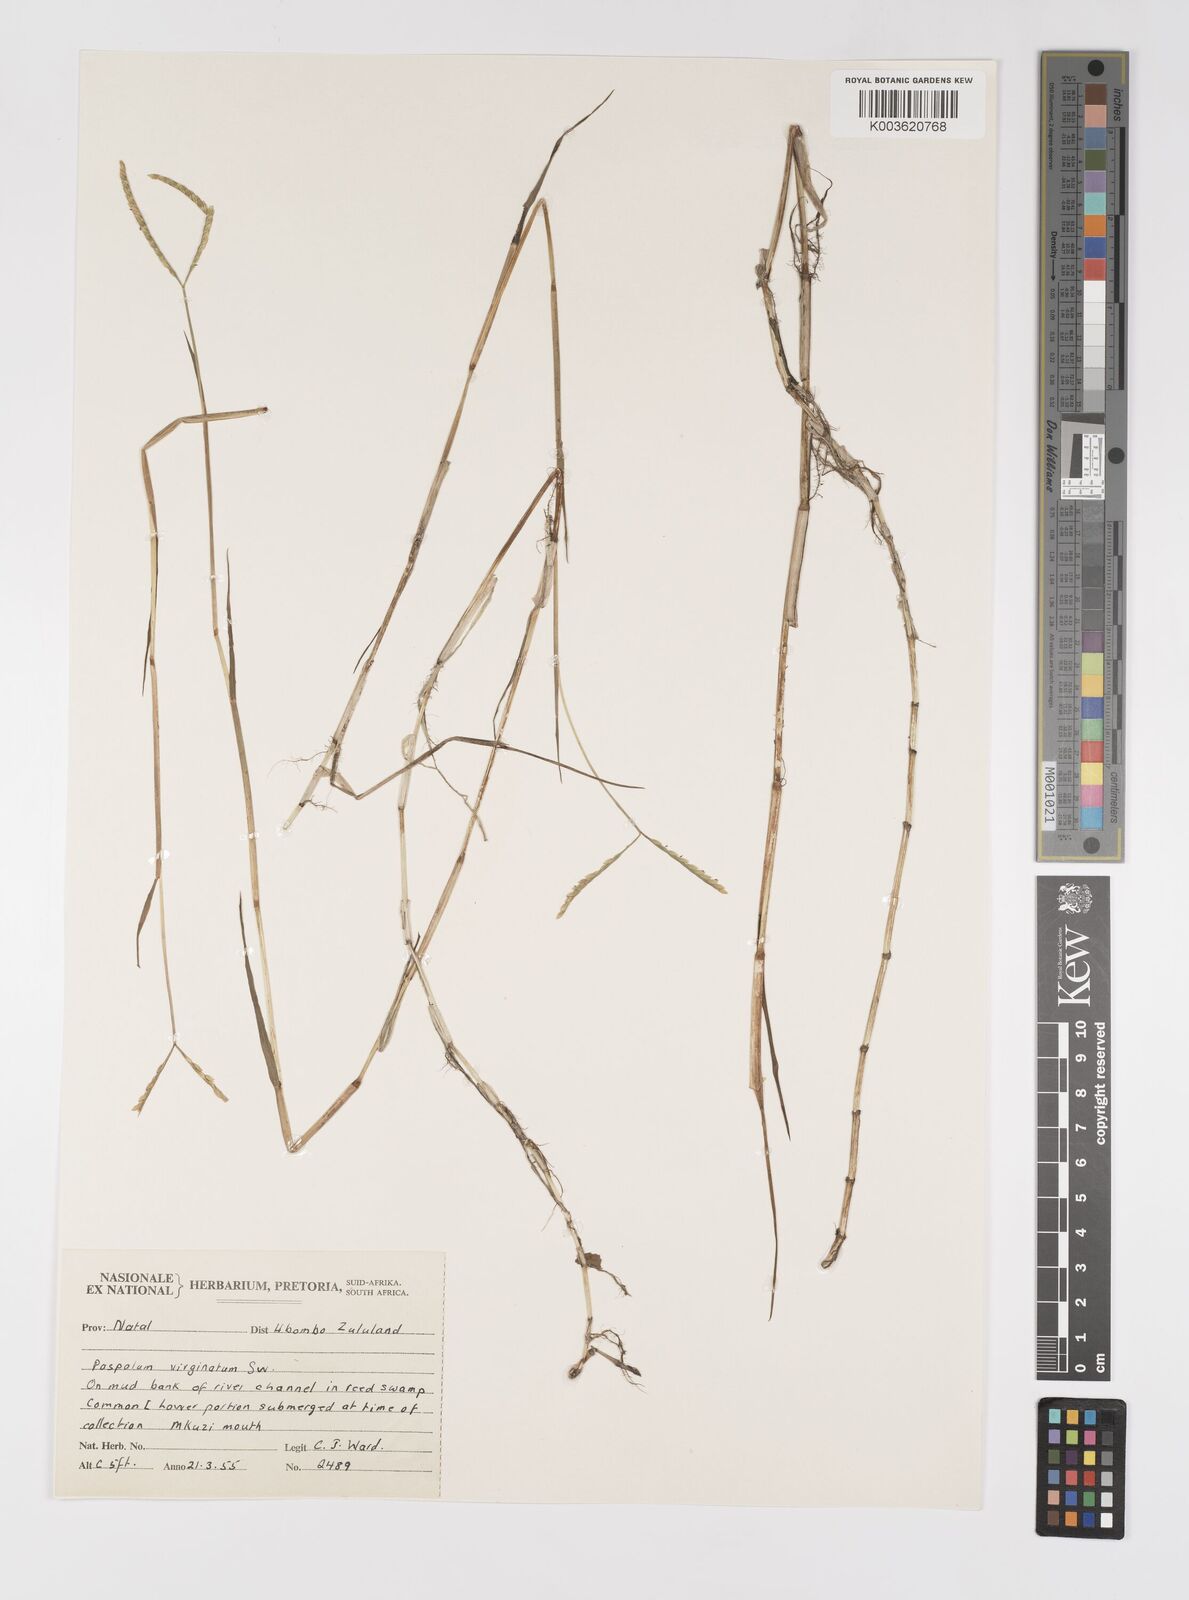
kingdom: Plantae
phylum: Tracheophyta
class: Liliopsida
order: Poales
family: Poaceae
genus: Paspalum
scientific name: Paspalum vaginatum
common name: Seashore paspalum
